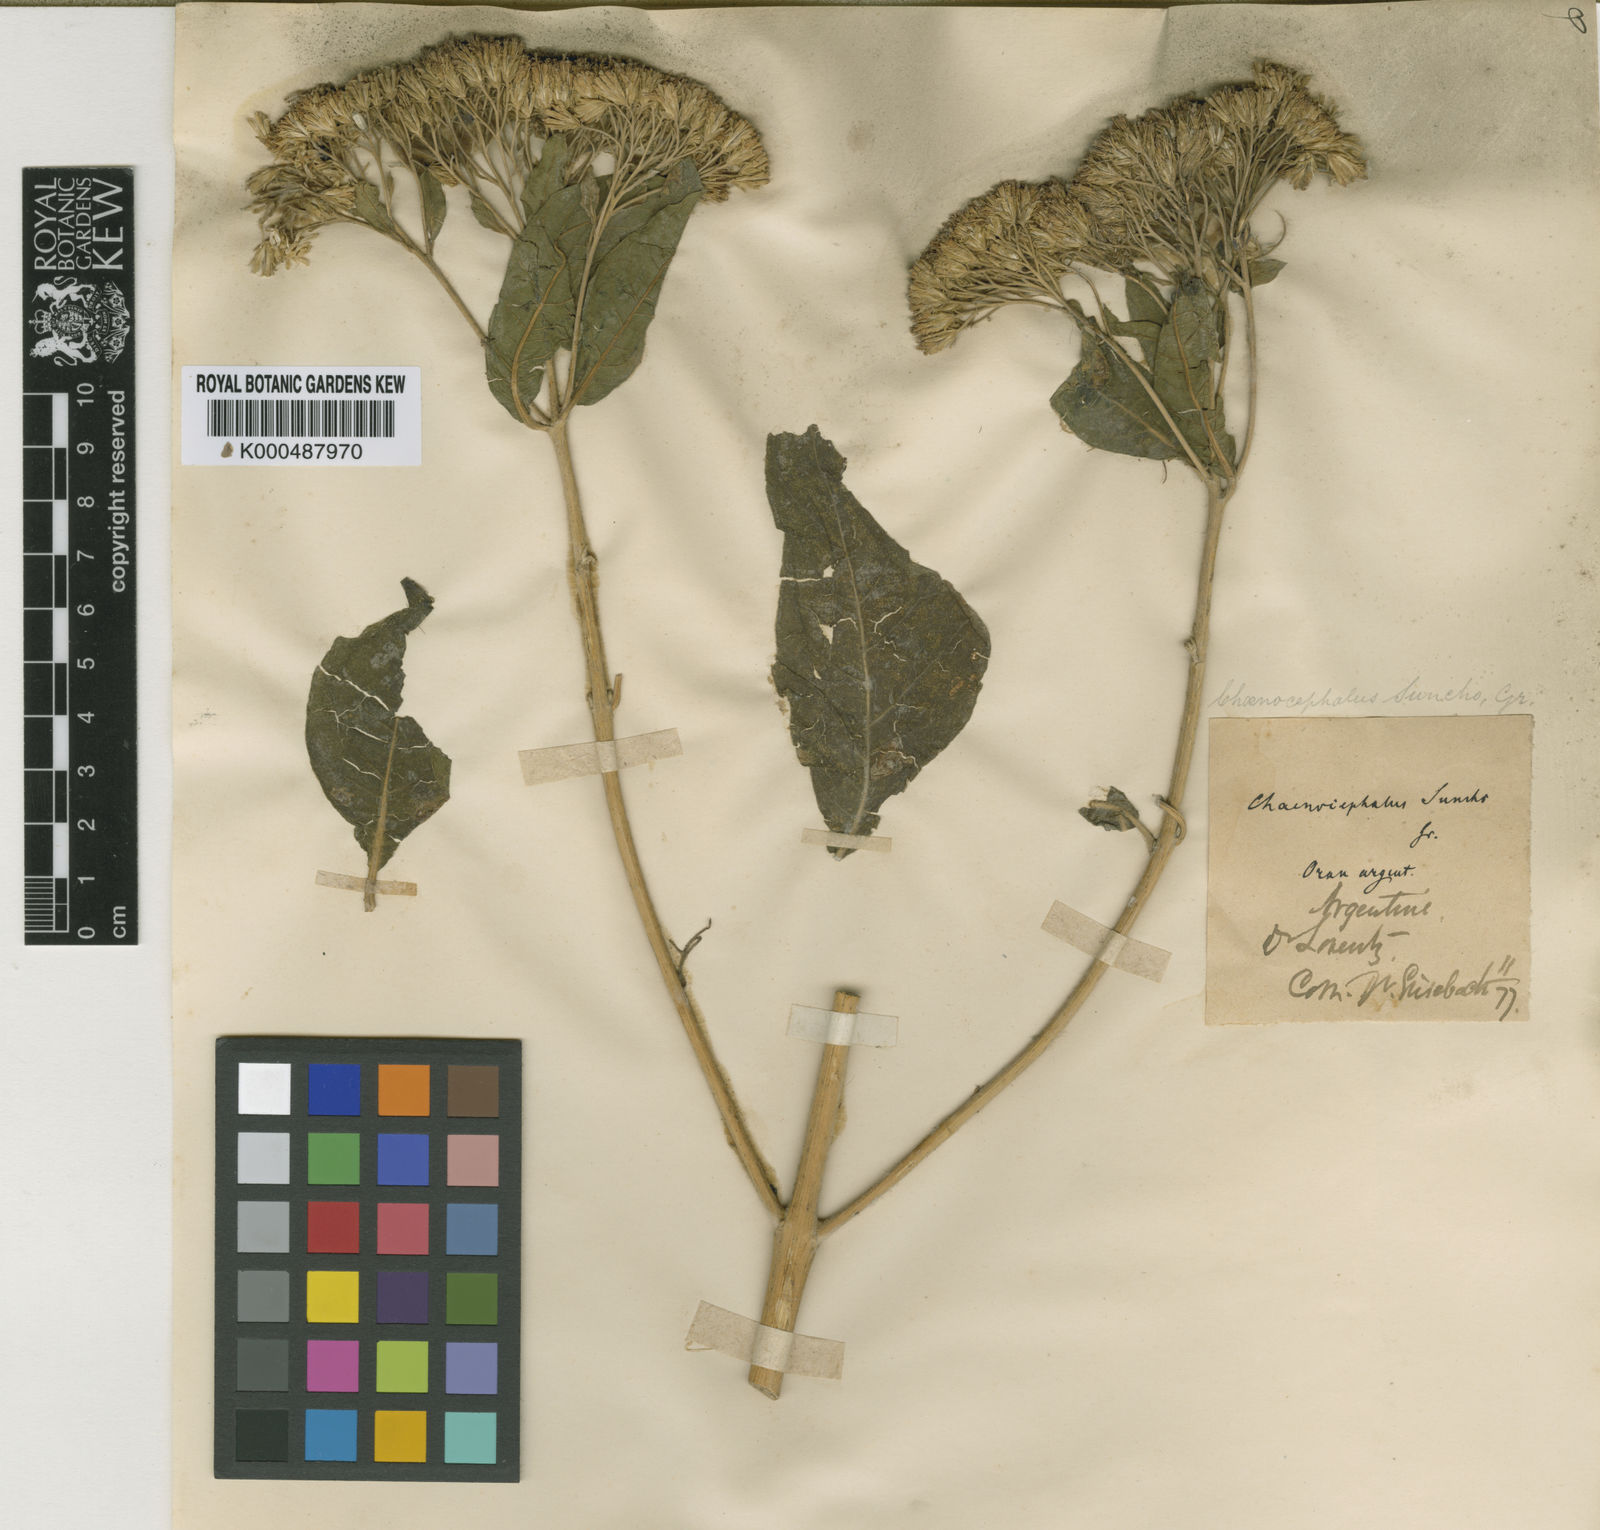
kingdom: Plantae
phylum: Tracheophyta
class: Magnoliopsida
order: Asterales
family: Asteraceae
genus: Verbesina
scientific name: Verbesina suncho
